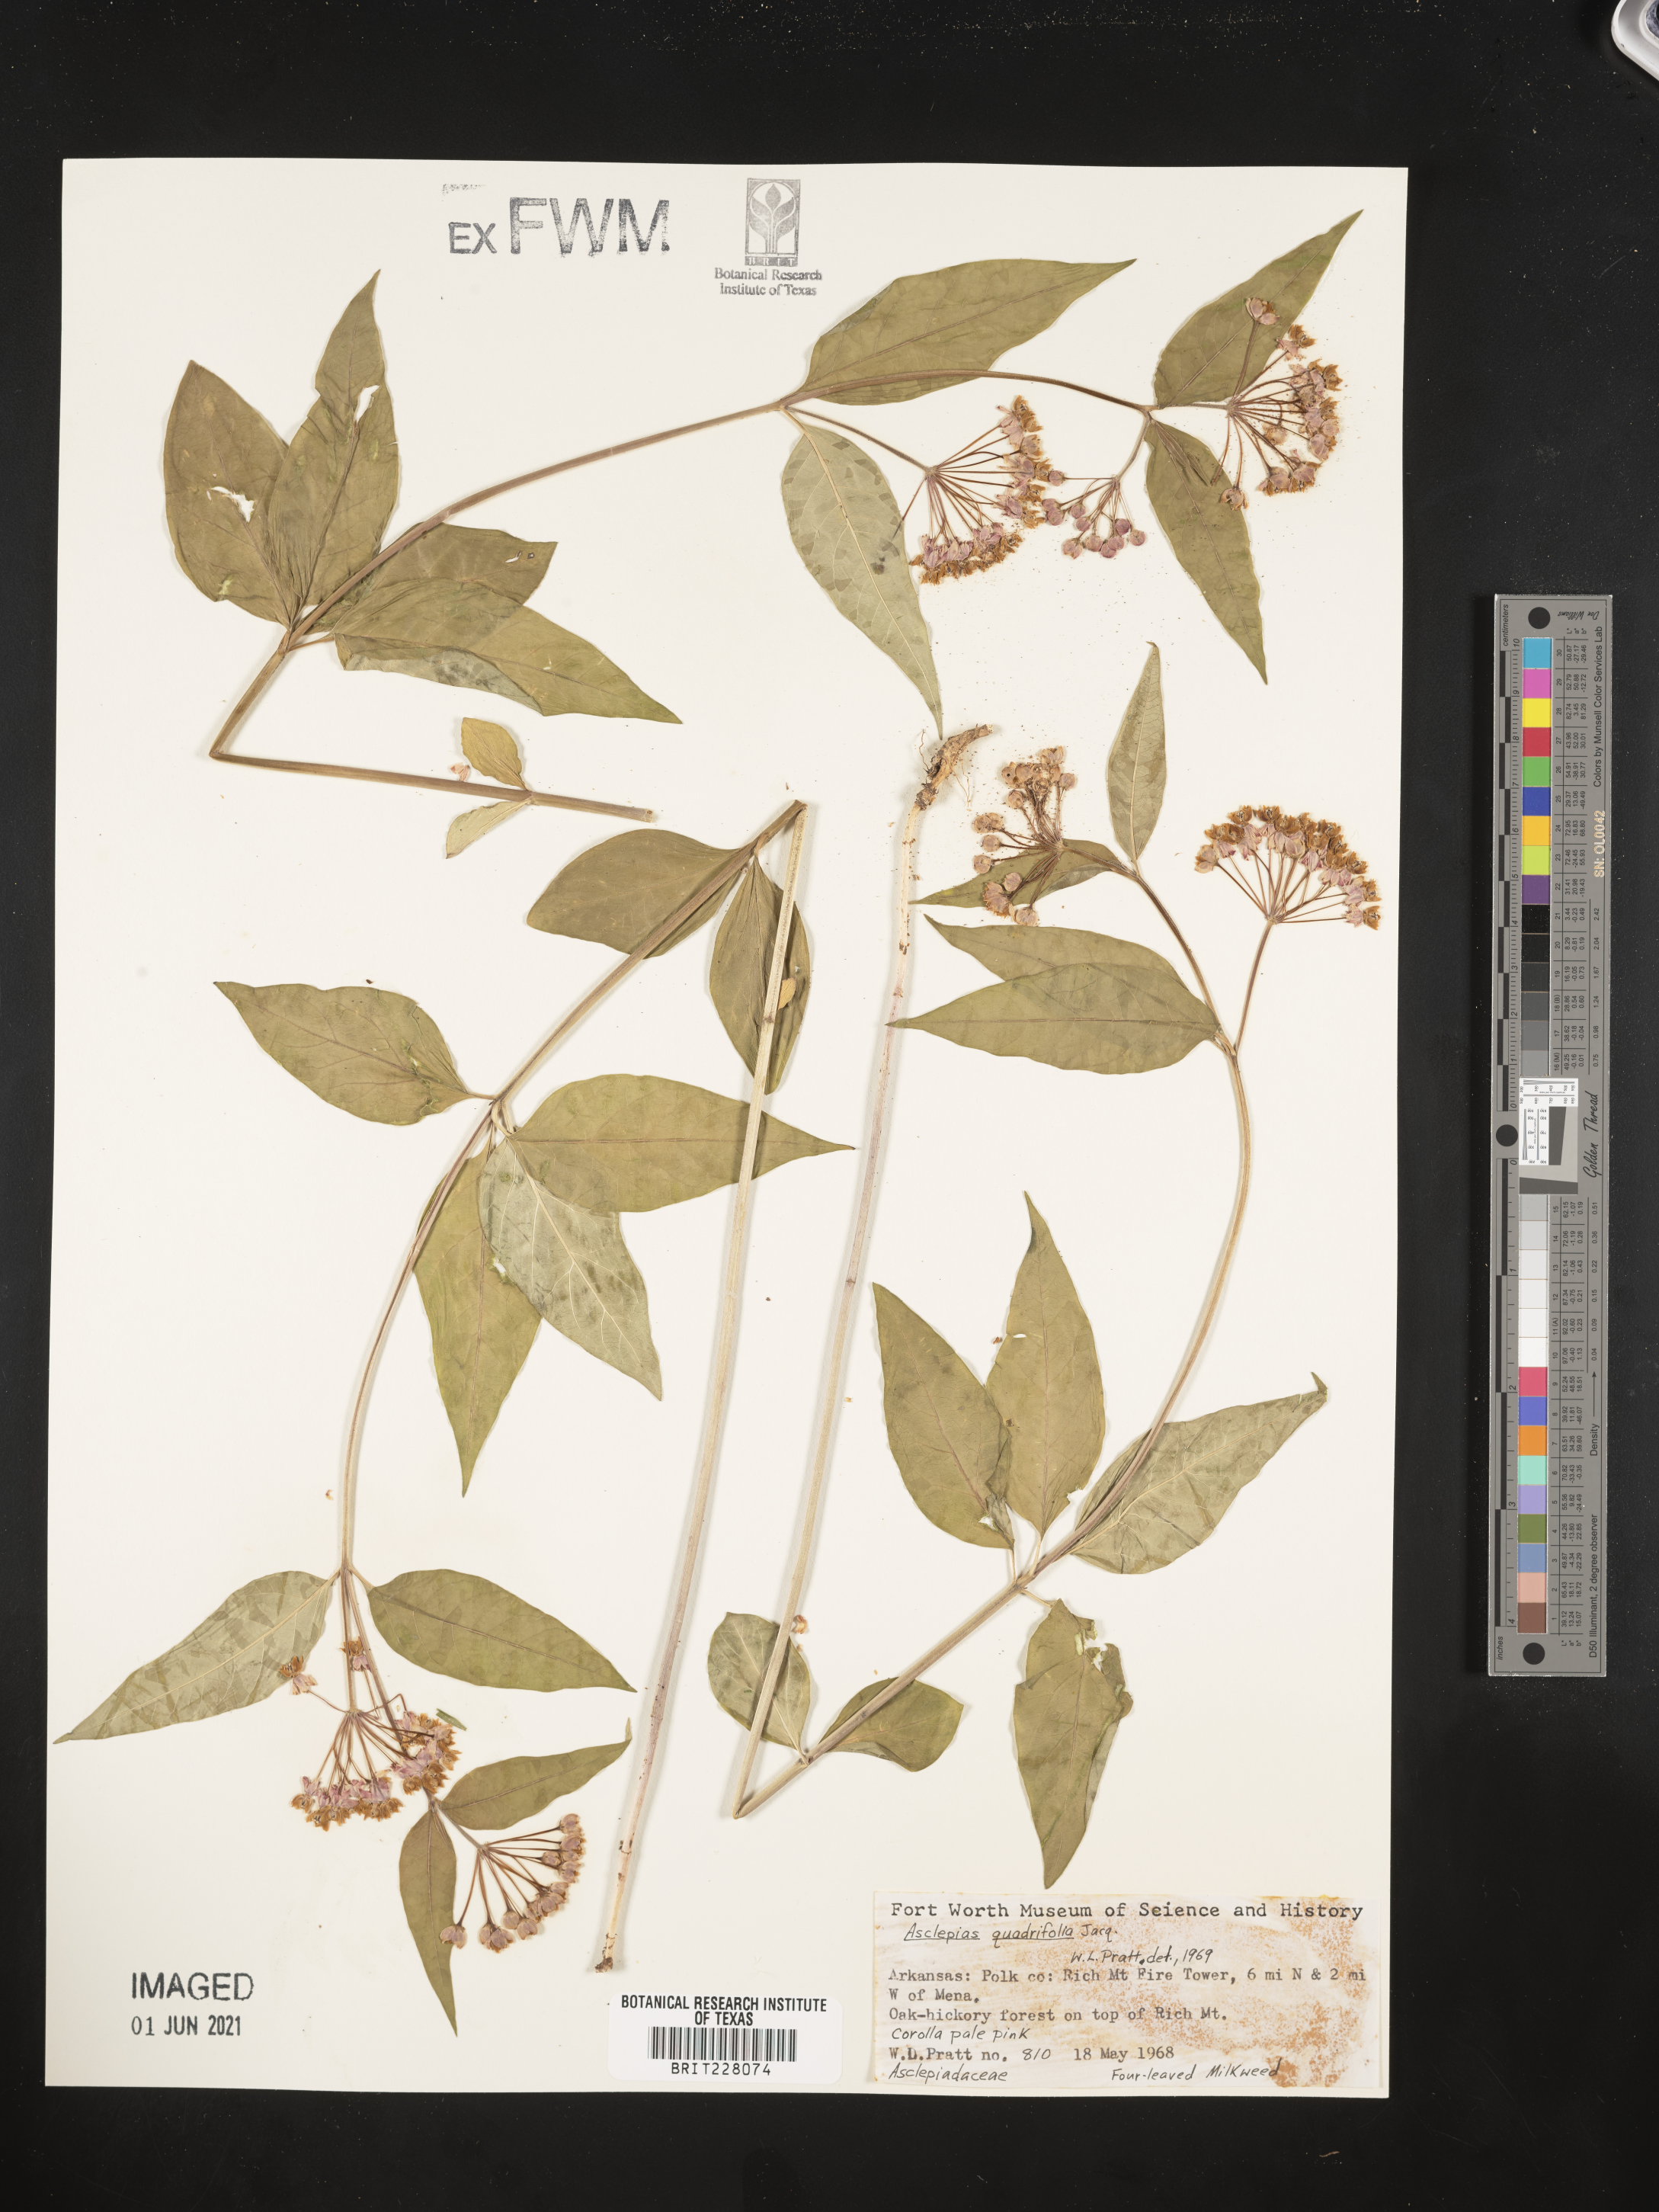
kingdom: Plantae
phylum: Tracheophyta
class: Magnoliopsida
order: Gentianales
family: Apocynaceae
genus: Asclepias
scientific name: Asclepias quadrifolia
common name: Whorled milkweed
